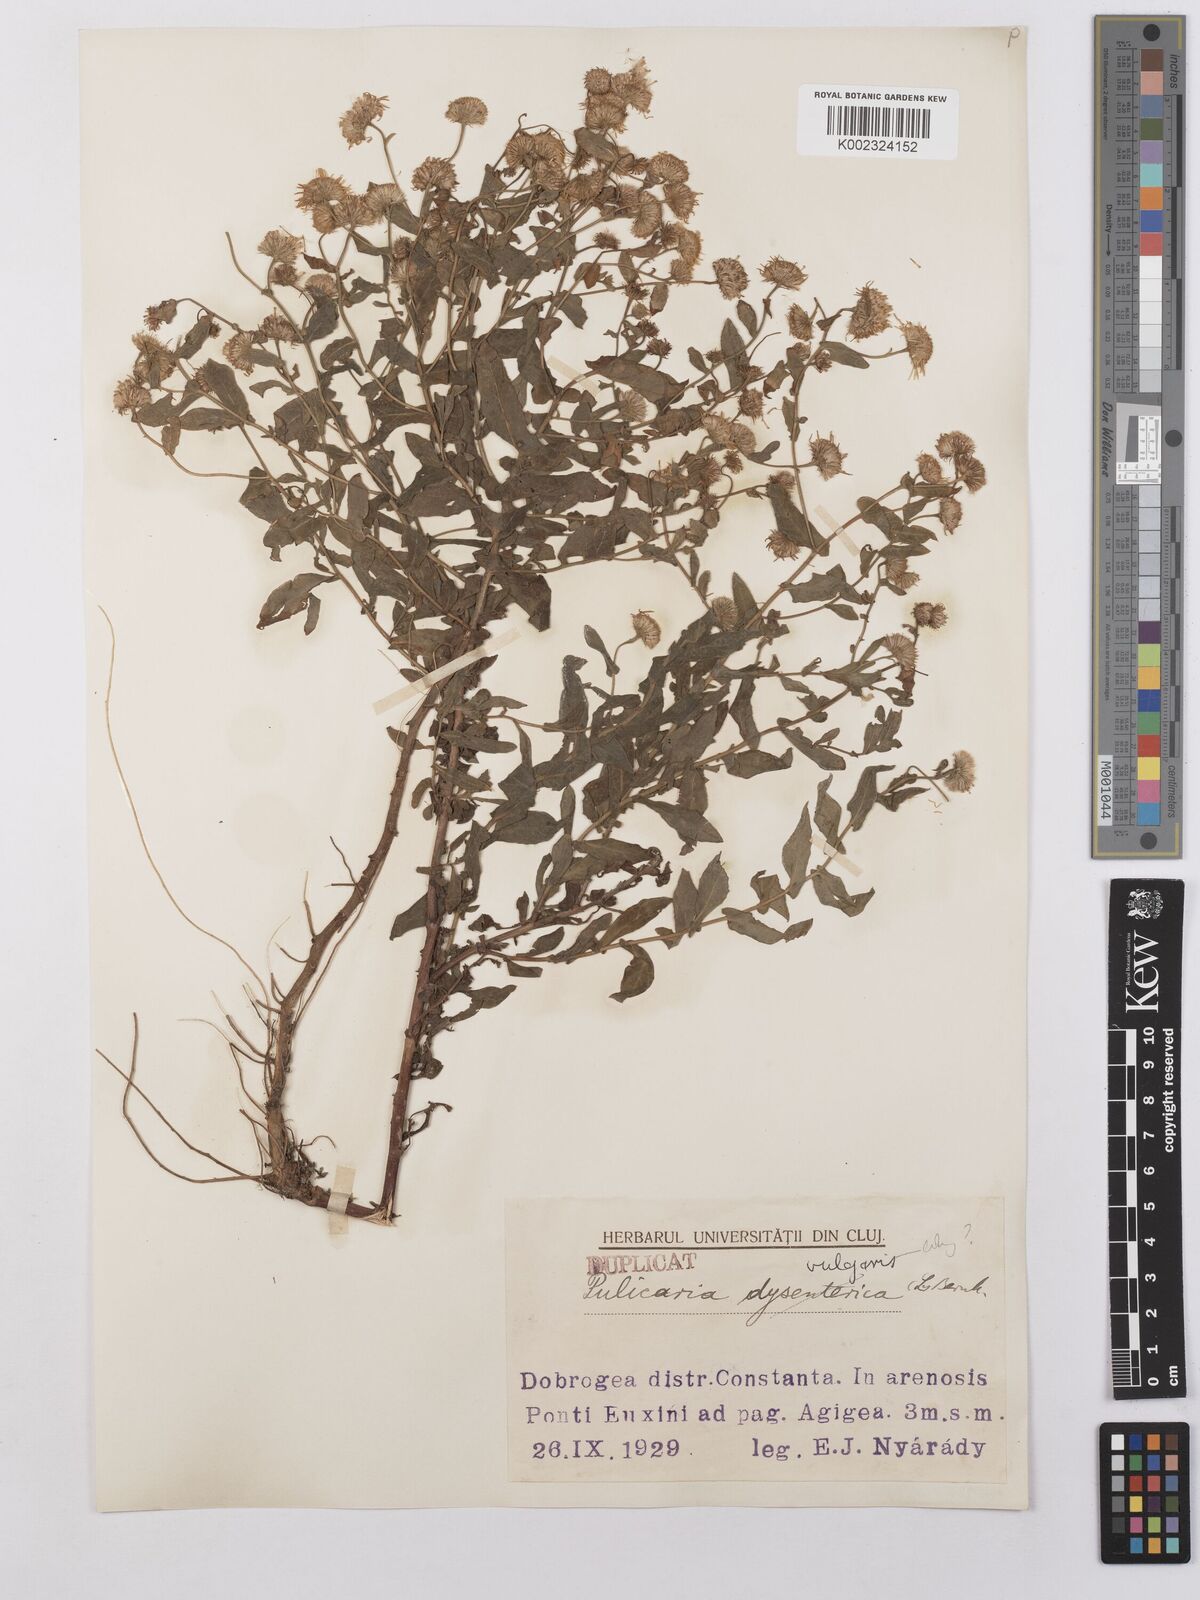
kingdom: Plantae
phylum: Tracheophyta
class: Magnoliopsida
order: Asterales
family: Asteraceae
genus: Pulicaria
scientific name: Pulicaria vulgaris
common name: Small fleabane
